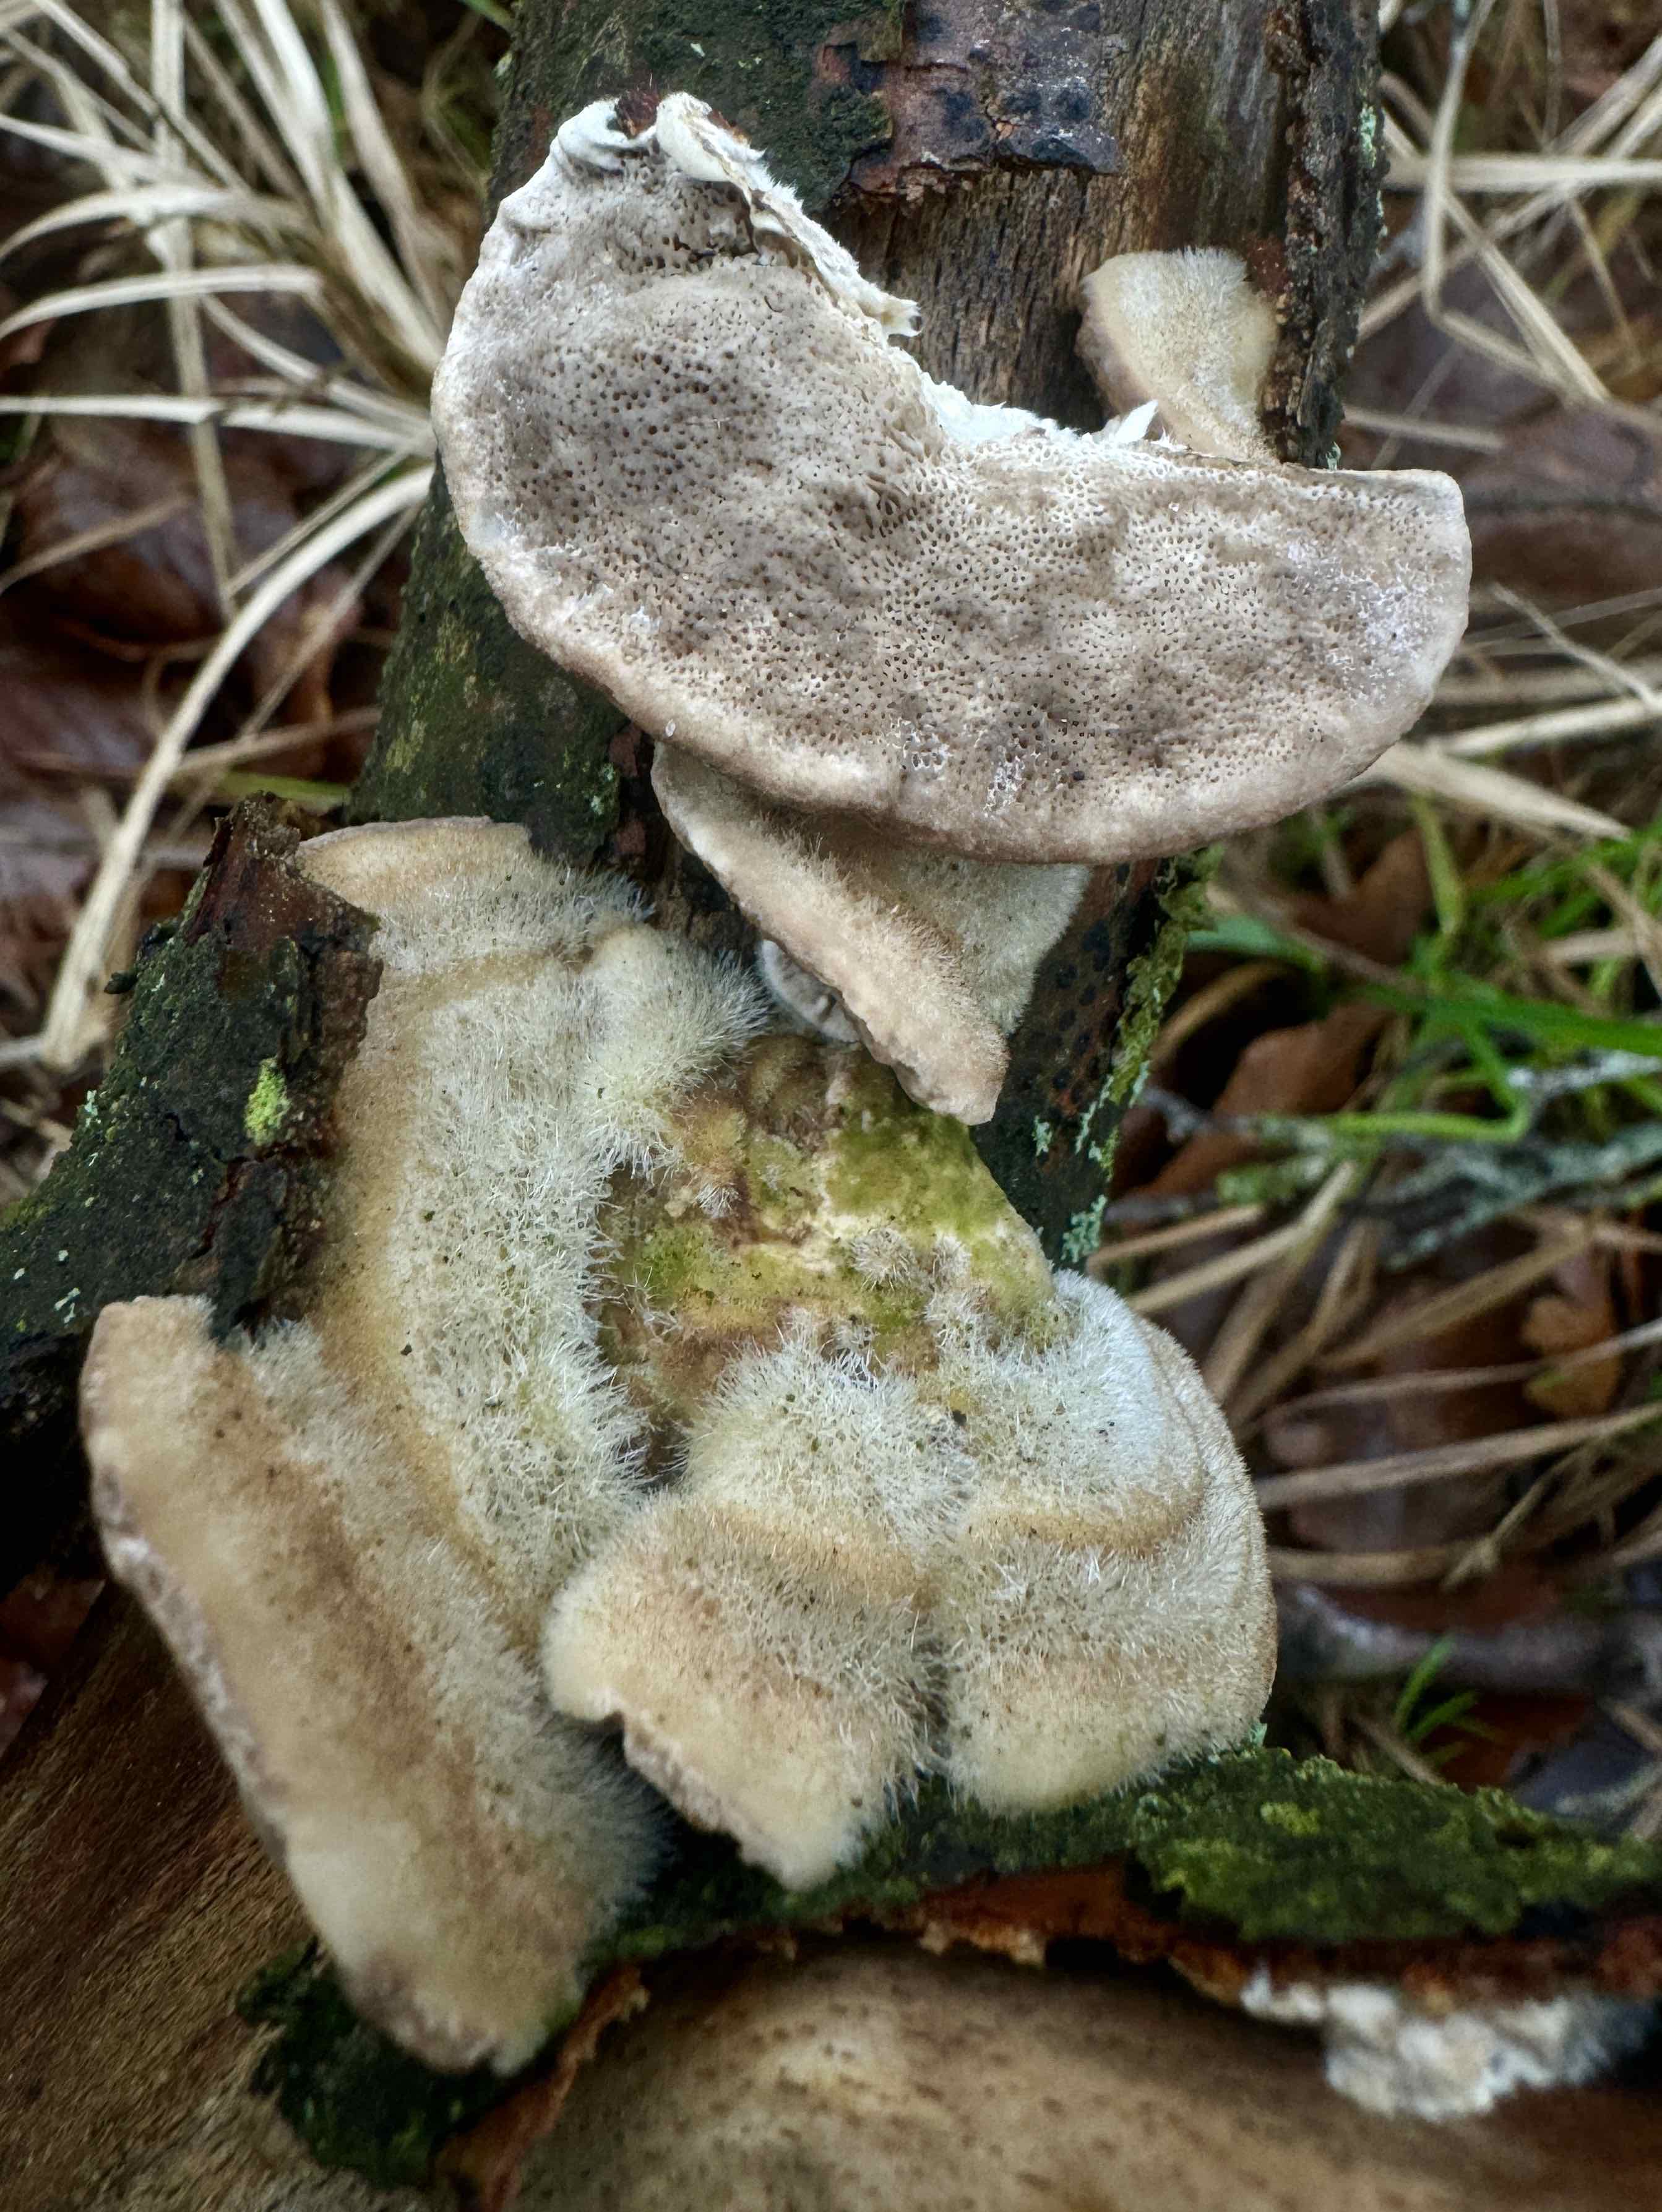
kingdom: Fungi
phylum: Basidiomycota
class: Agaricomycetes
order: Polyporales
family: Polyporaceae
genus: Trametes
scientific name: Trametes hirsuta
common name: håret læderporesvamp
